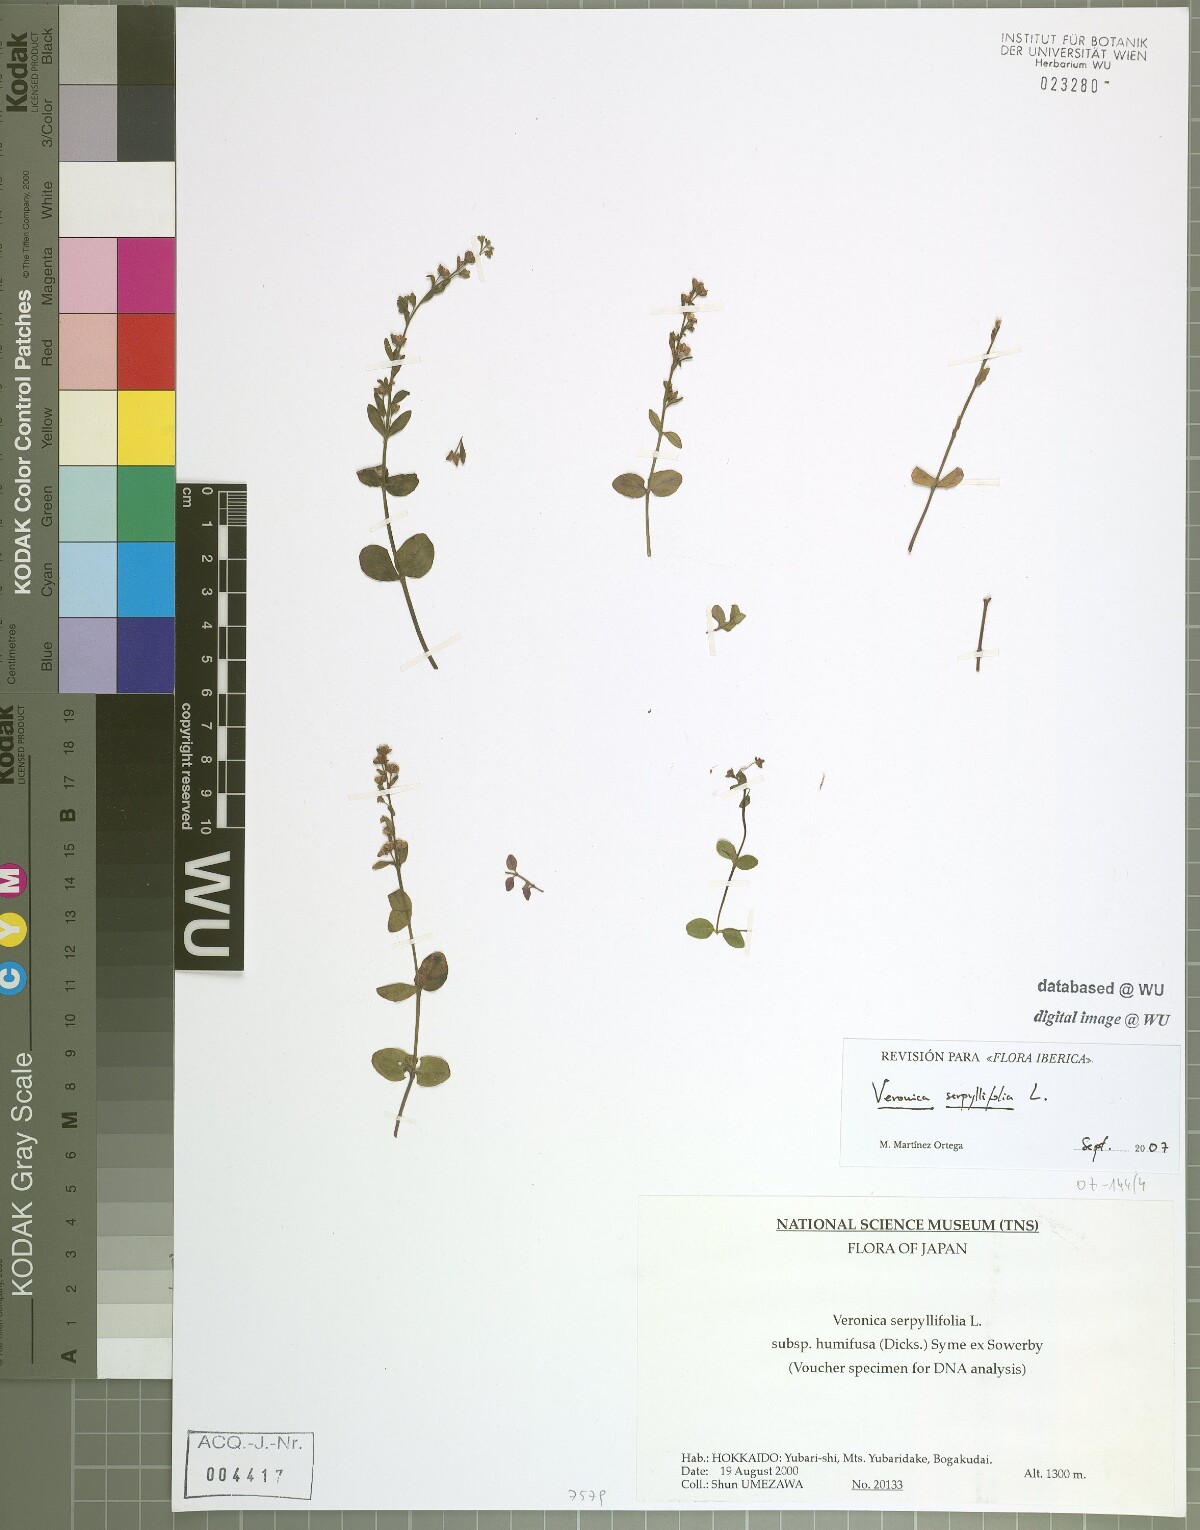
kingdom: Plantae
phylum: Tracheophyta
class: Magnoliopsida
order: Lamiales
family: Plantaginaceae
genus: Veronica
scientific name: Veronica serpyllifolia
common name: Thyme-leaved speedwell
